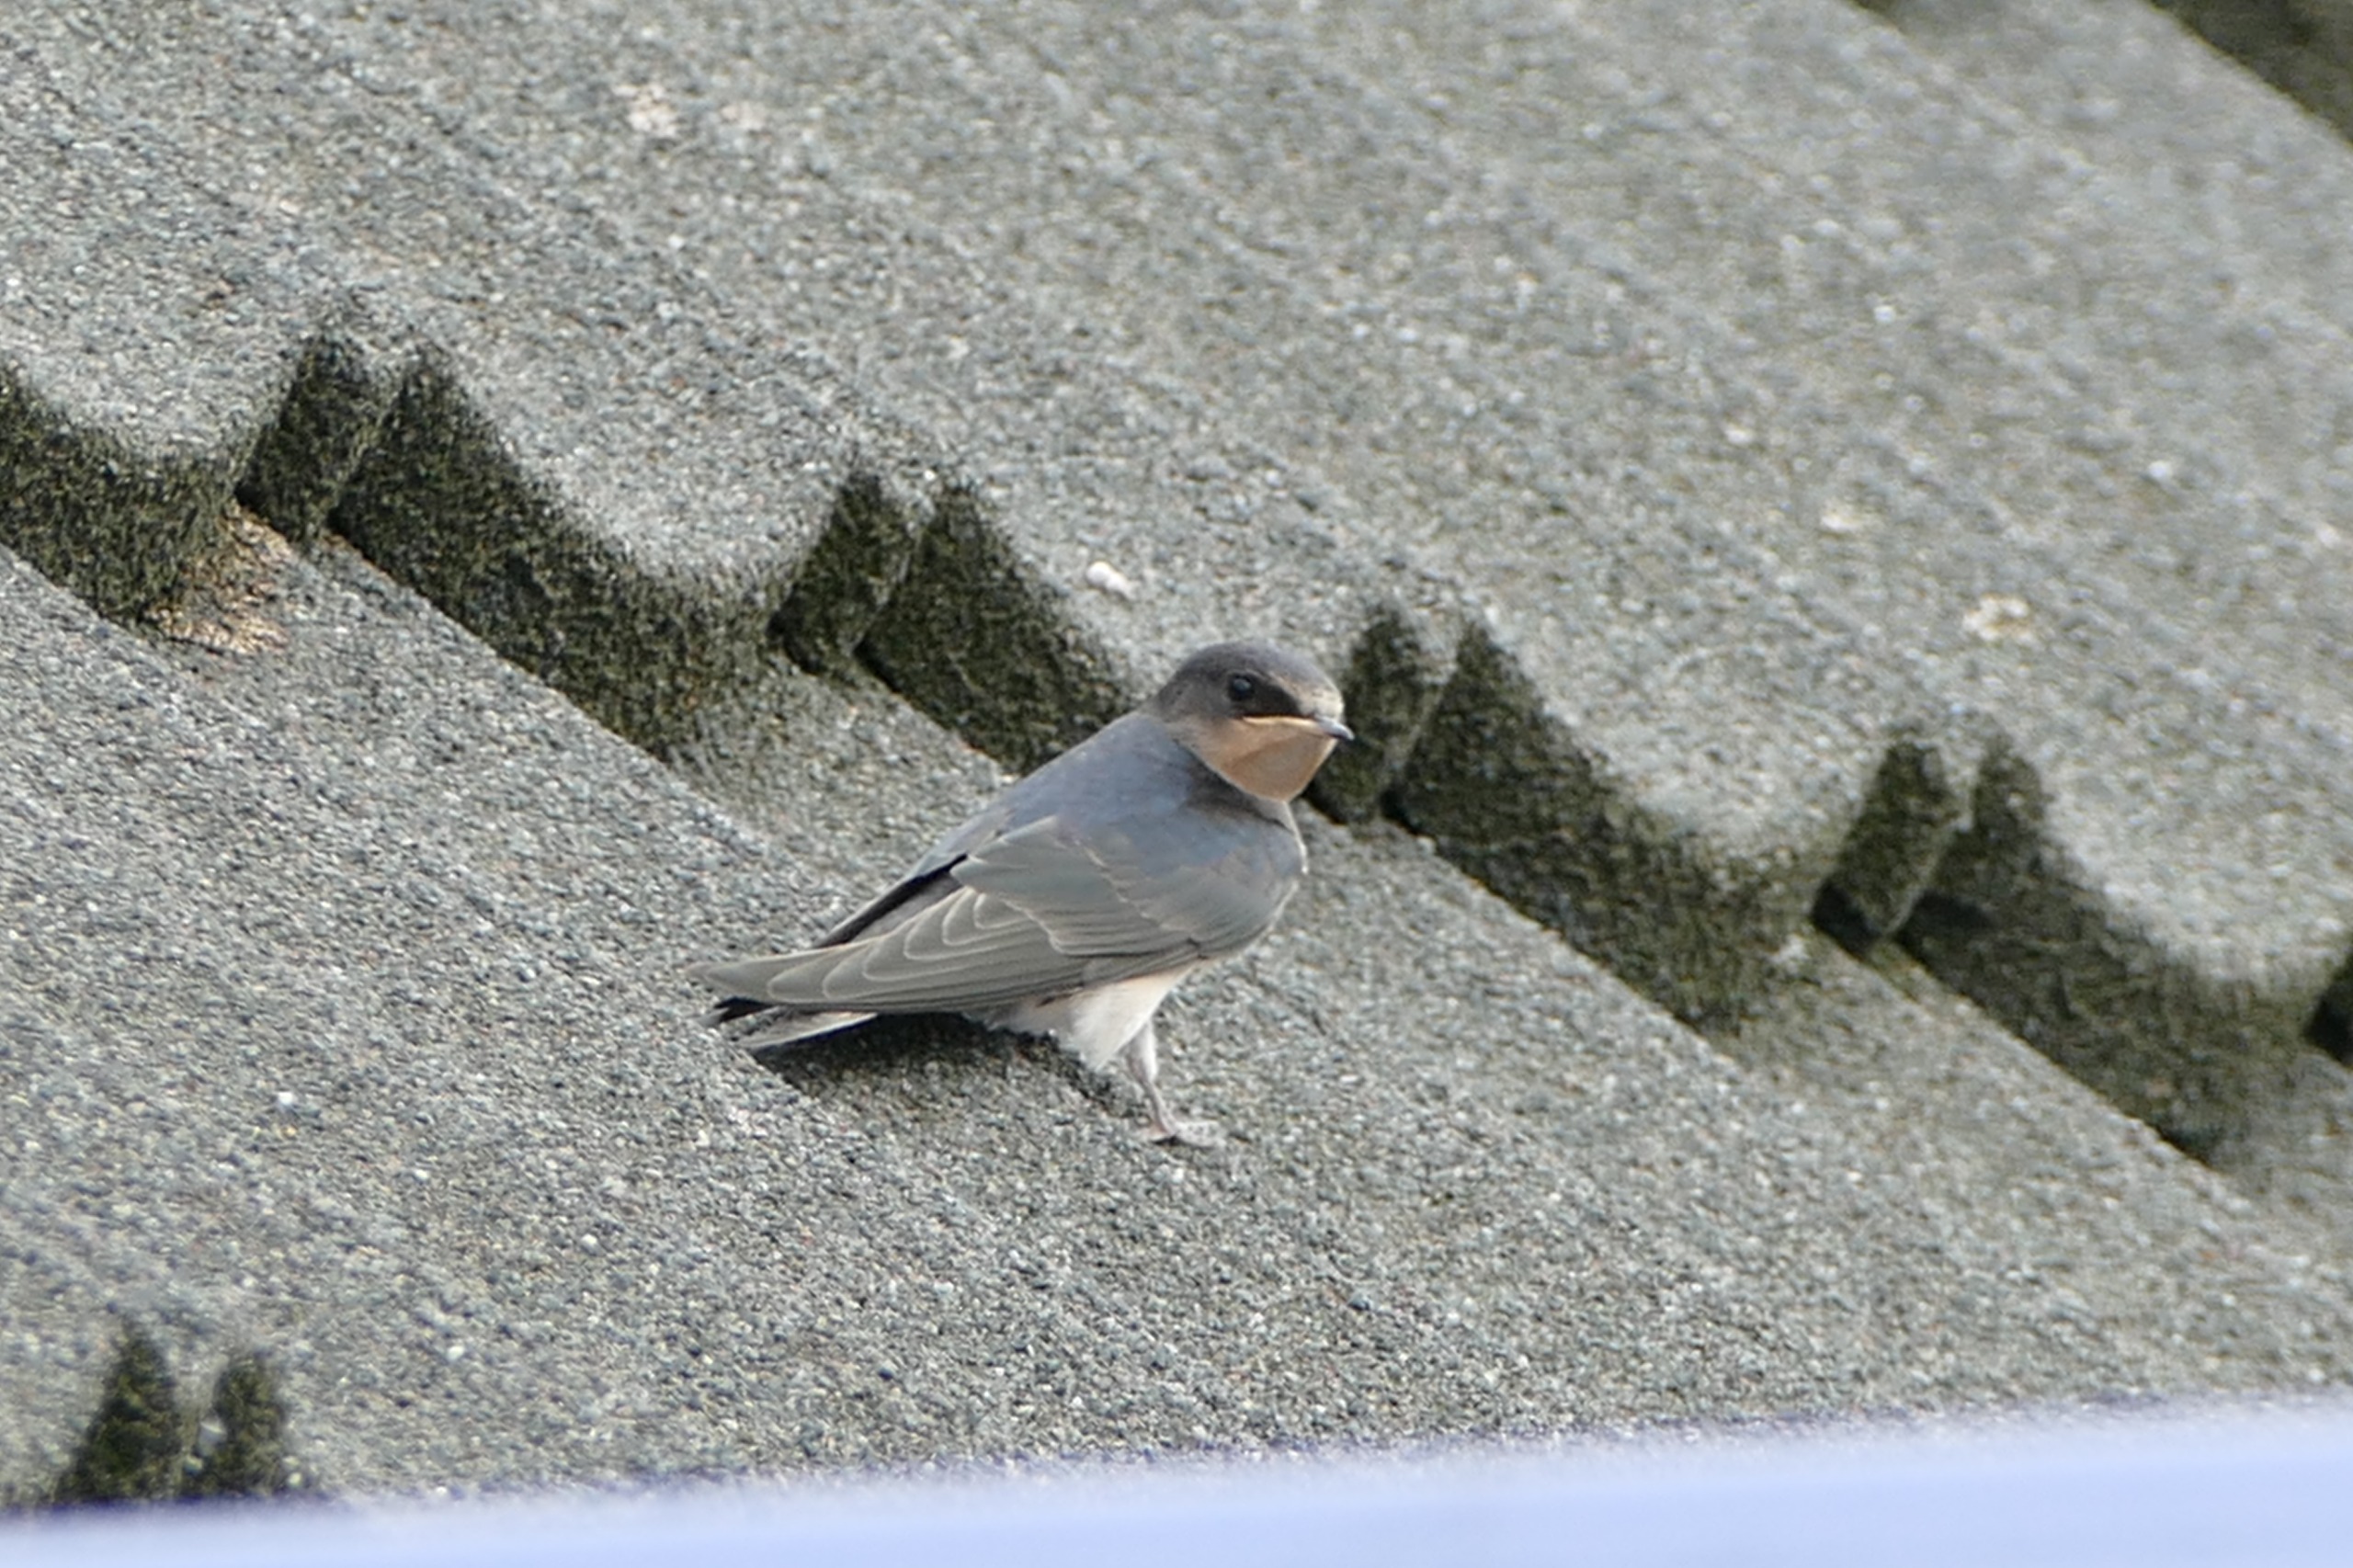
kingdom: Animalia
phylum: Chordata
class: Aves
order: Passeriformes
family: Hirundinidae
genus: Hirundo
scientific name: Hirundo rustica
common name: Landsvale
